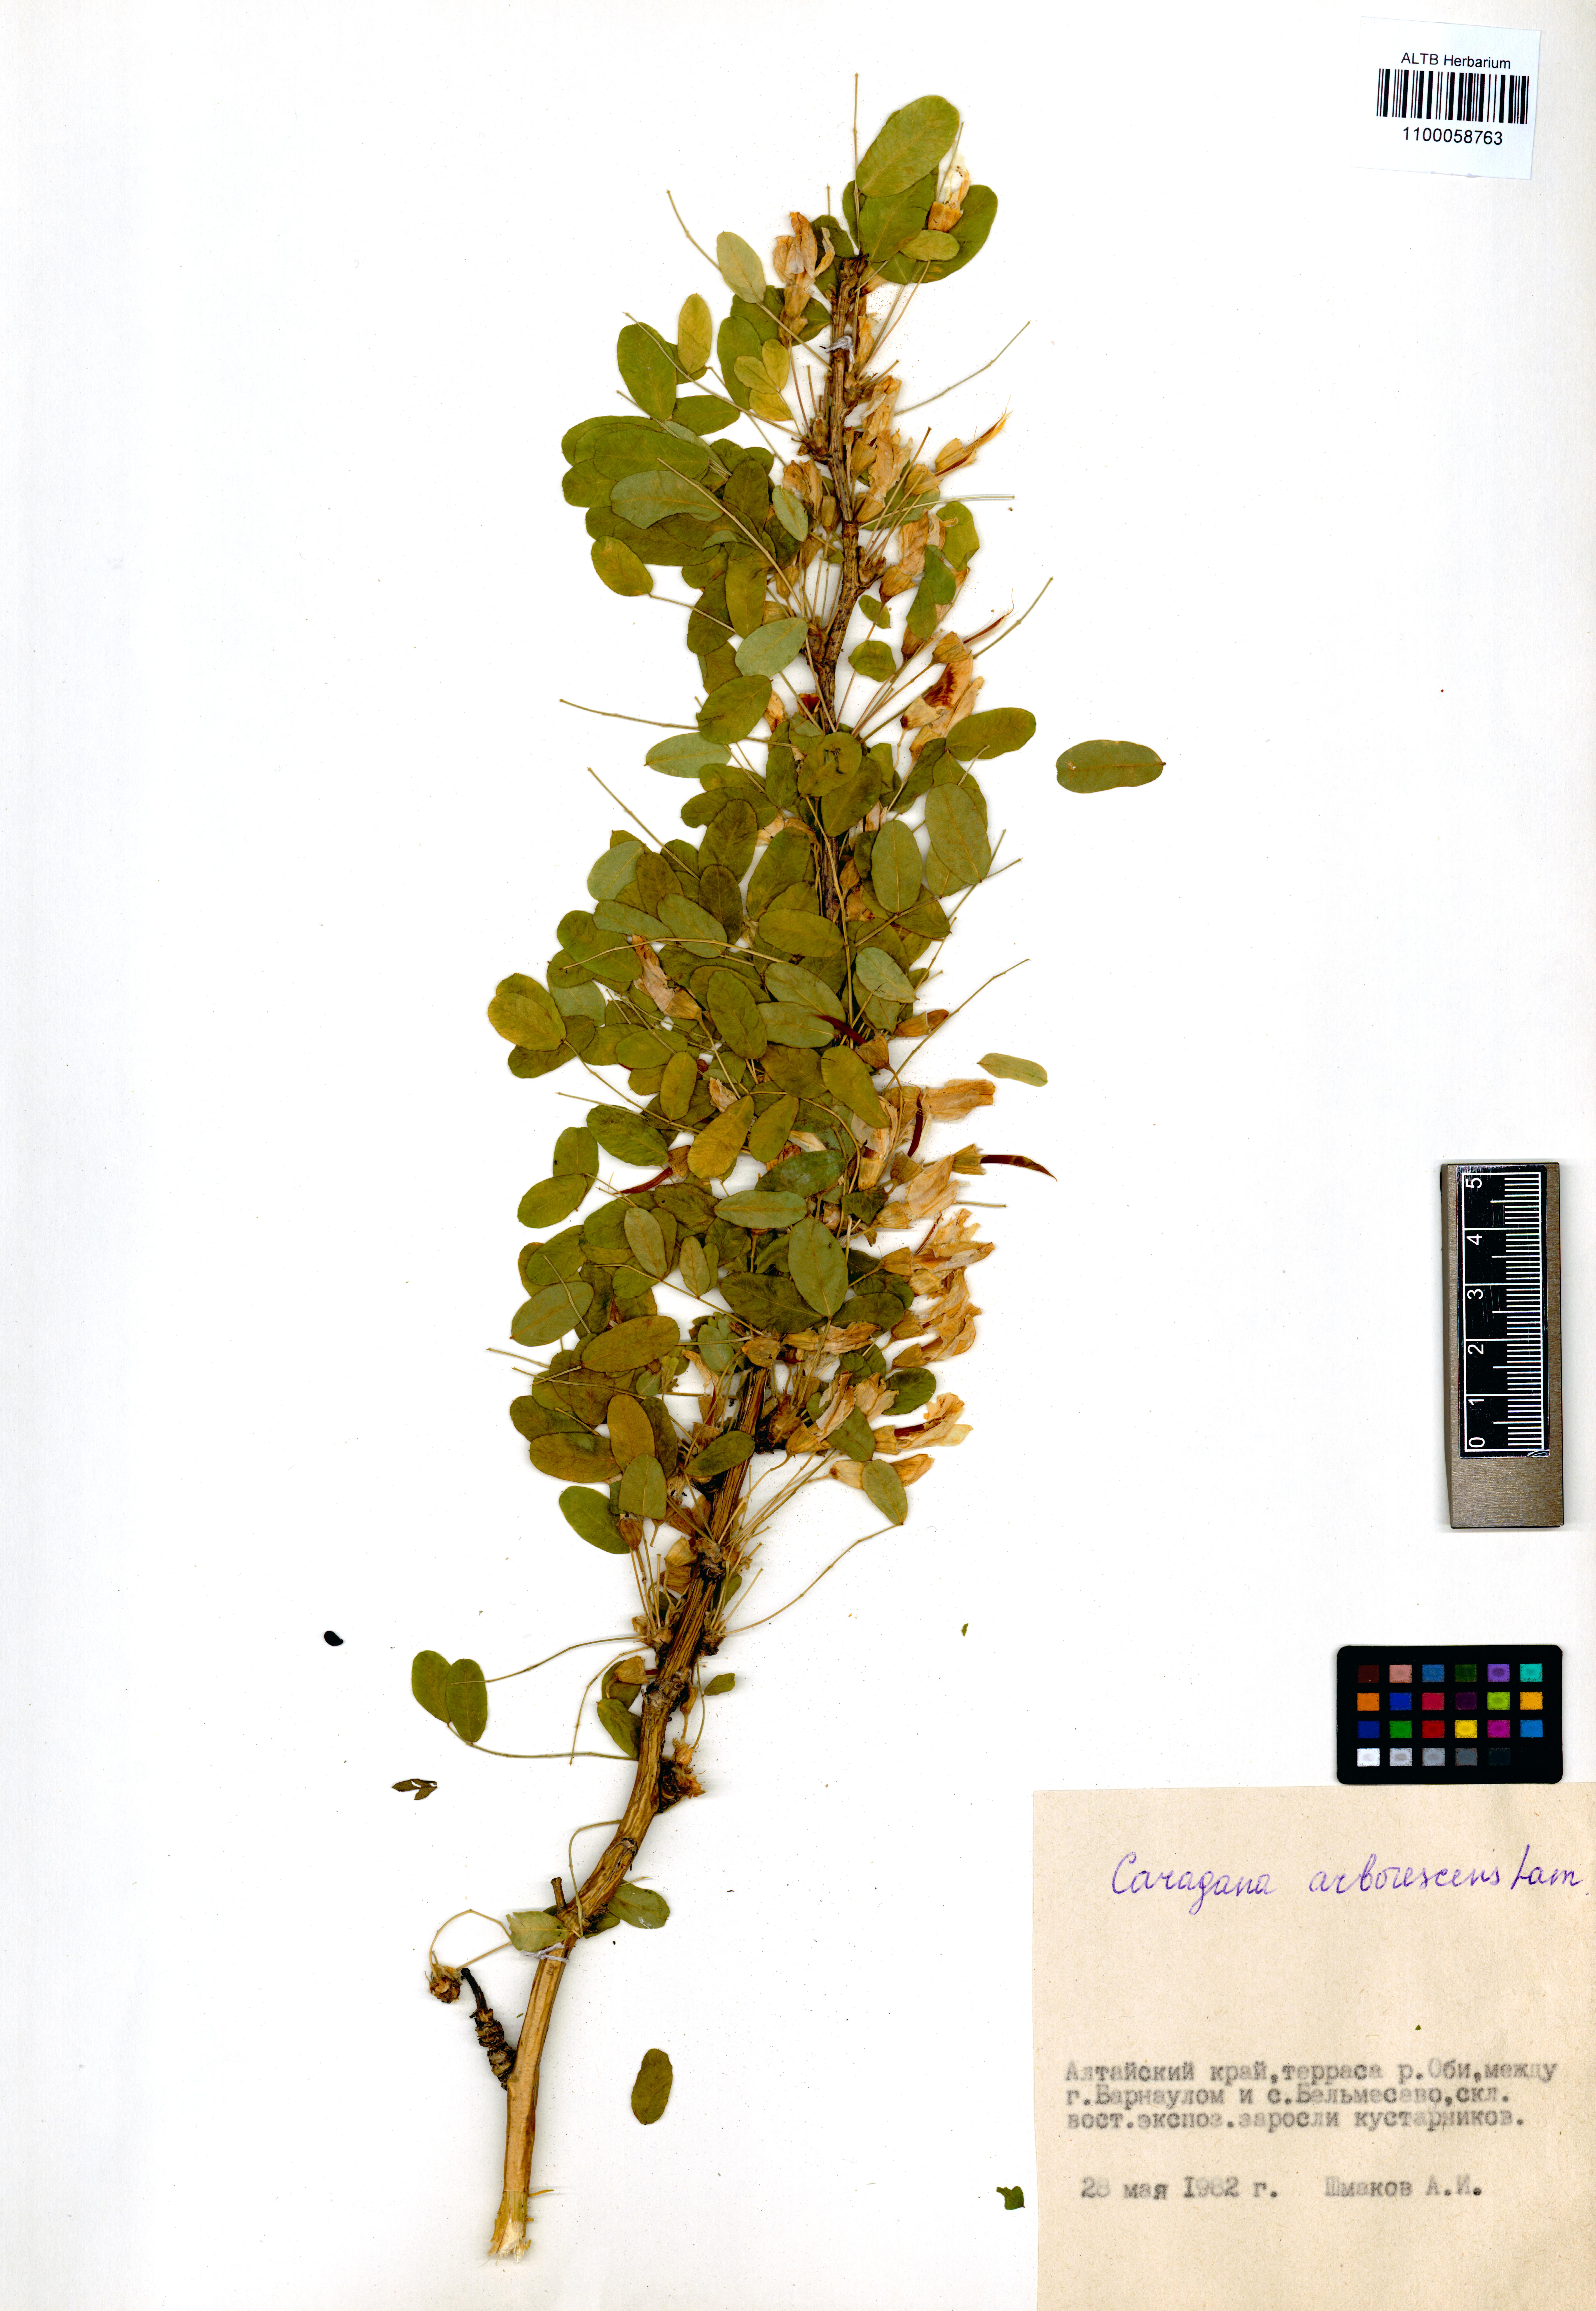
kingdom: Plantae
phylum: Tracheophyta
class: Magnoliopsida
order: Fabales
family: Fabaceae
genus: Caragana
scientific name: Caragana arborescens
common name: Siberian peashrub
